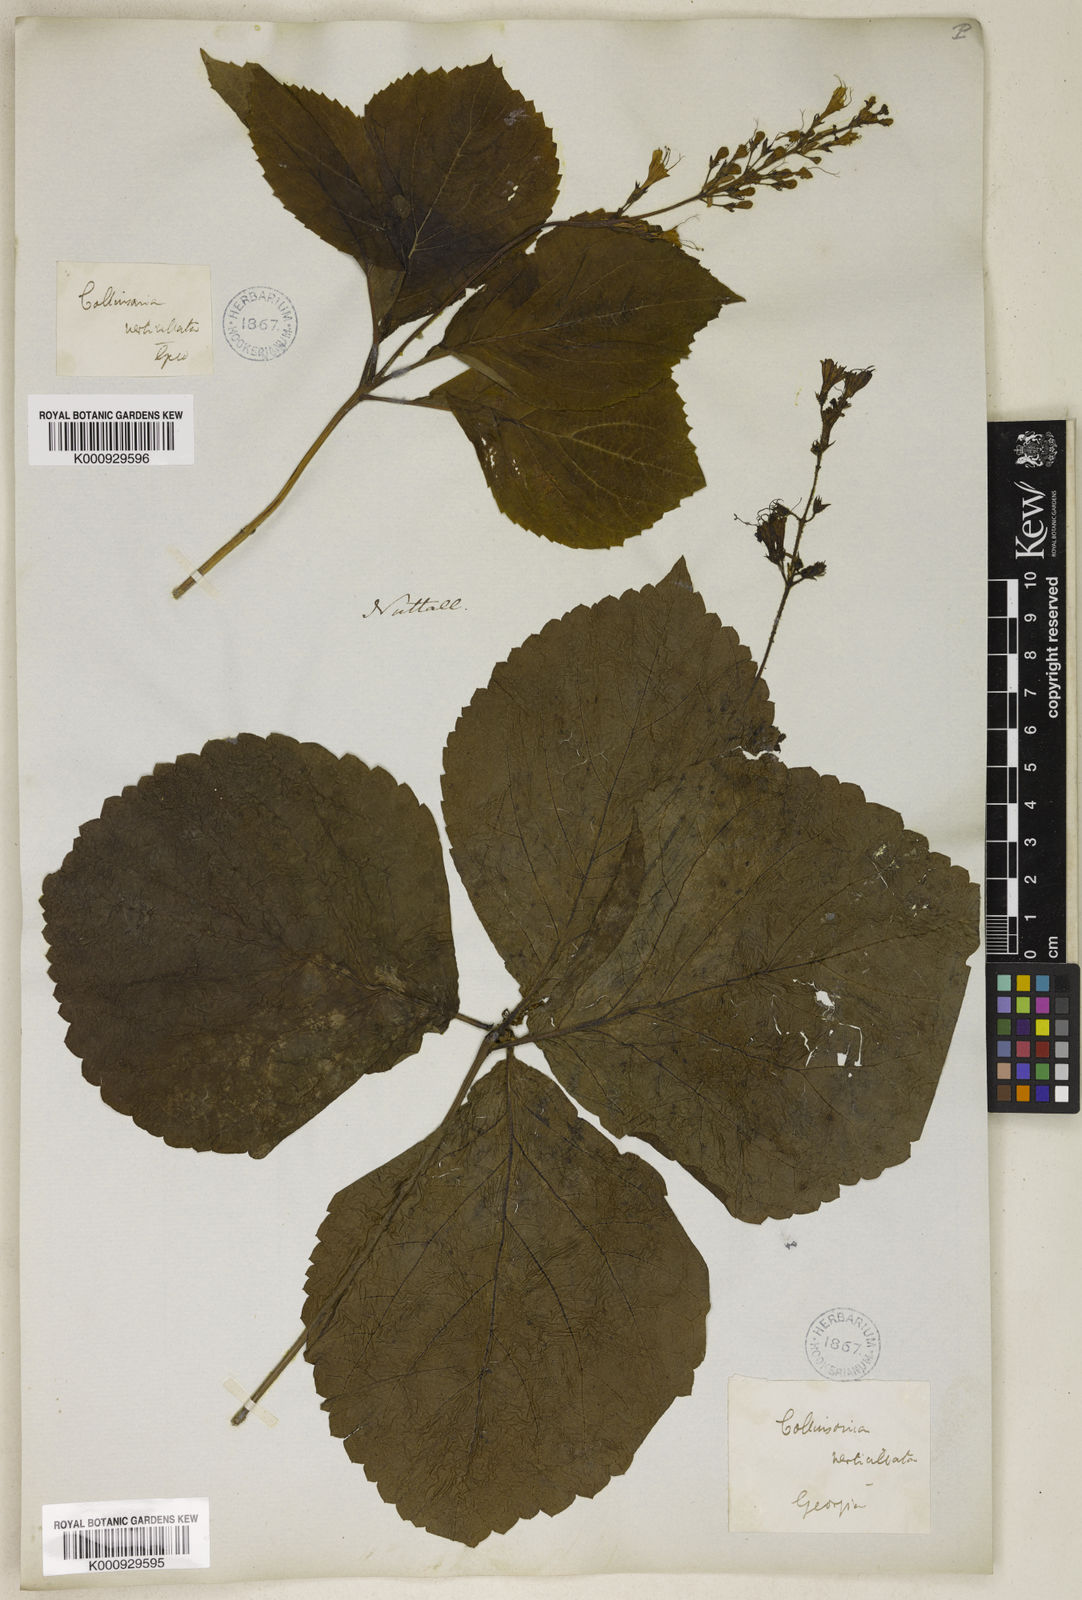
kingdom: Plantae
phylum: Tracheophyta
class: Magnoliopsida
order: Lamiales
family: Lamiaceae
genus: Collinsonia
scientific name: Collinsonia verticillata
